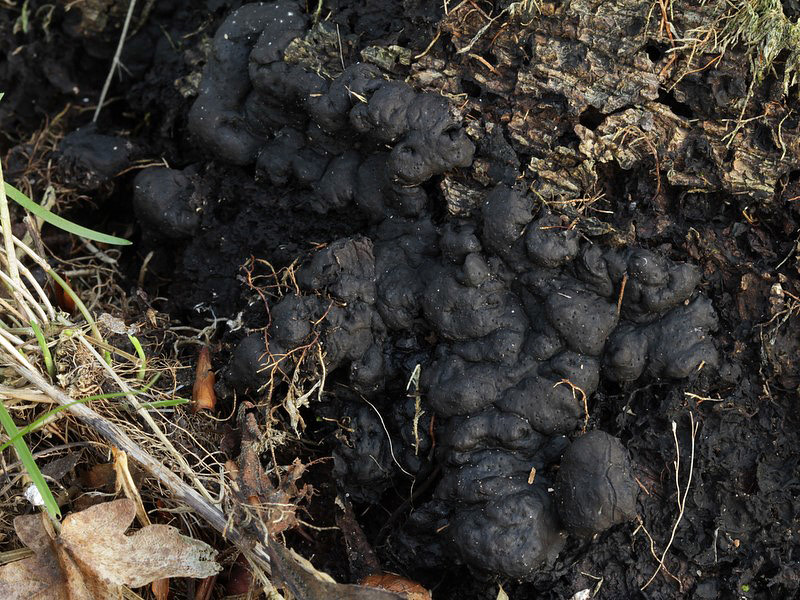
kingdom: Fungi
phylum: Ascomycota
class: Sordariomycetes
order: Xylariales
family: Xylariaceae
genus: Kretzschmaria
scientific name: Kretzschmaria deusta
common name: stor kulsvamp
